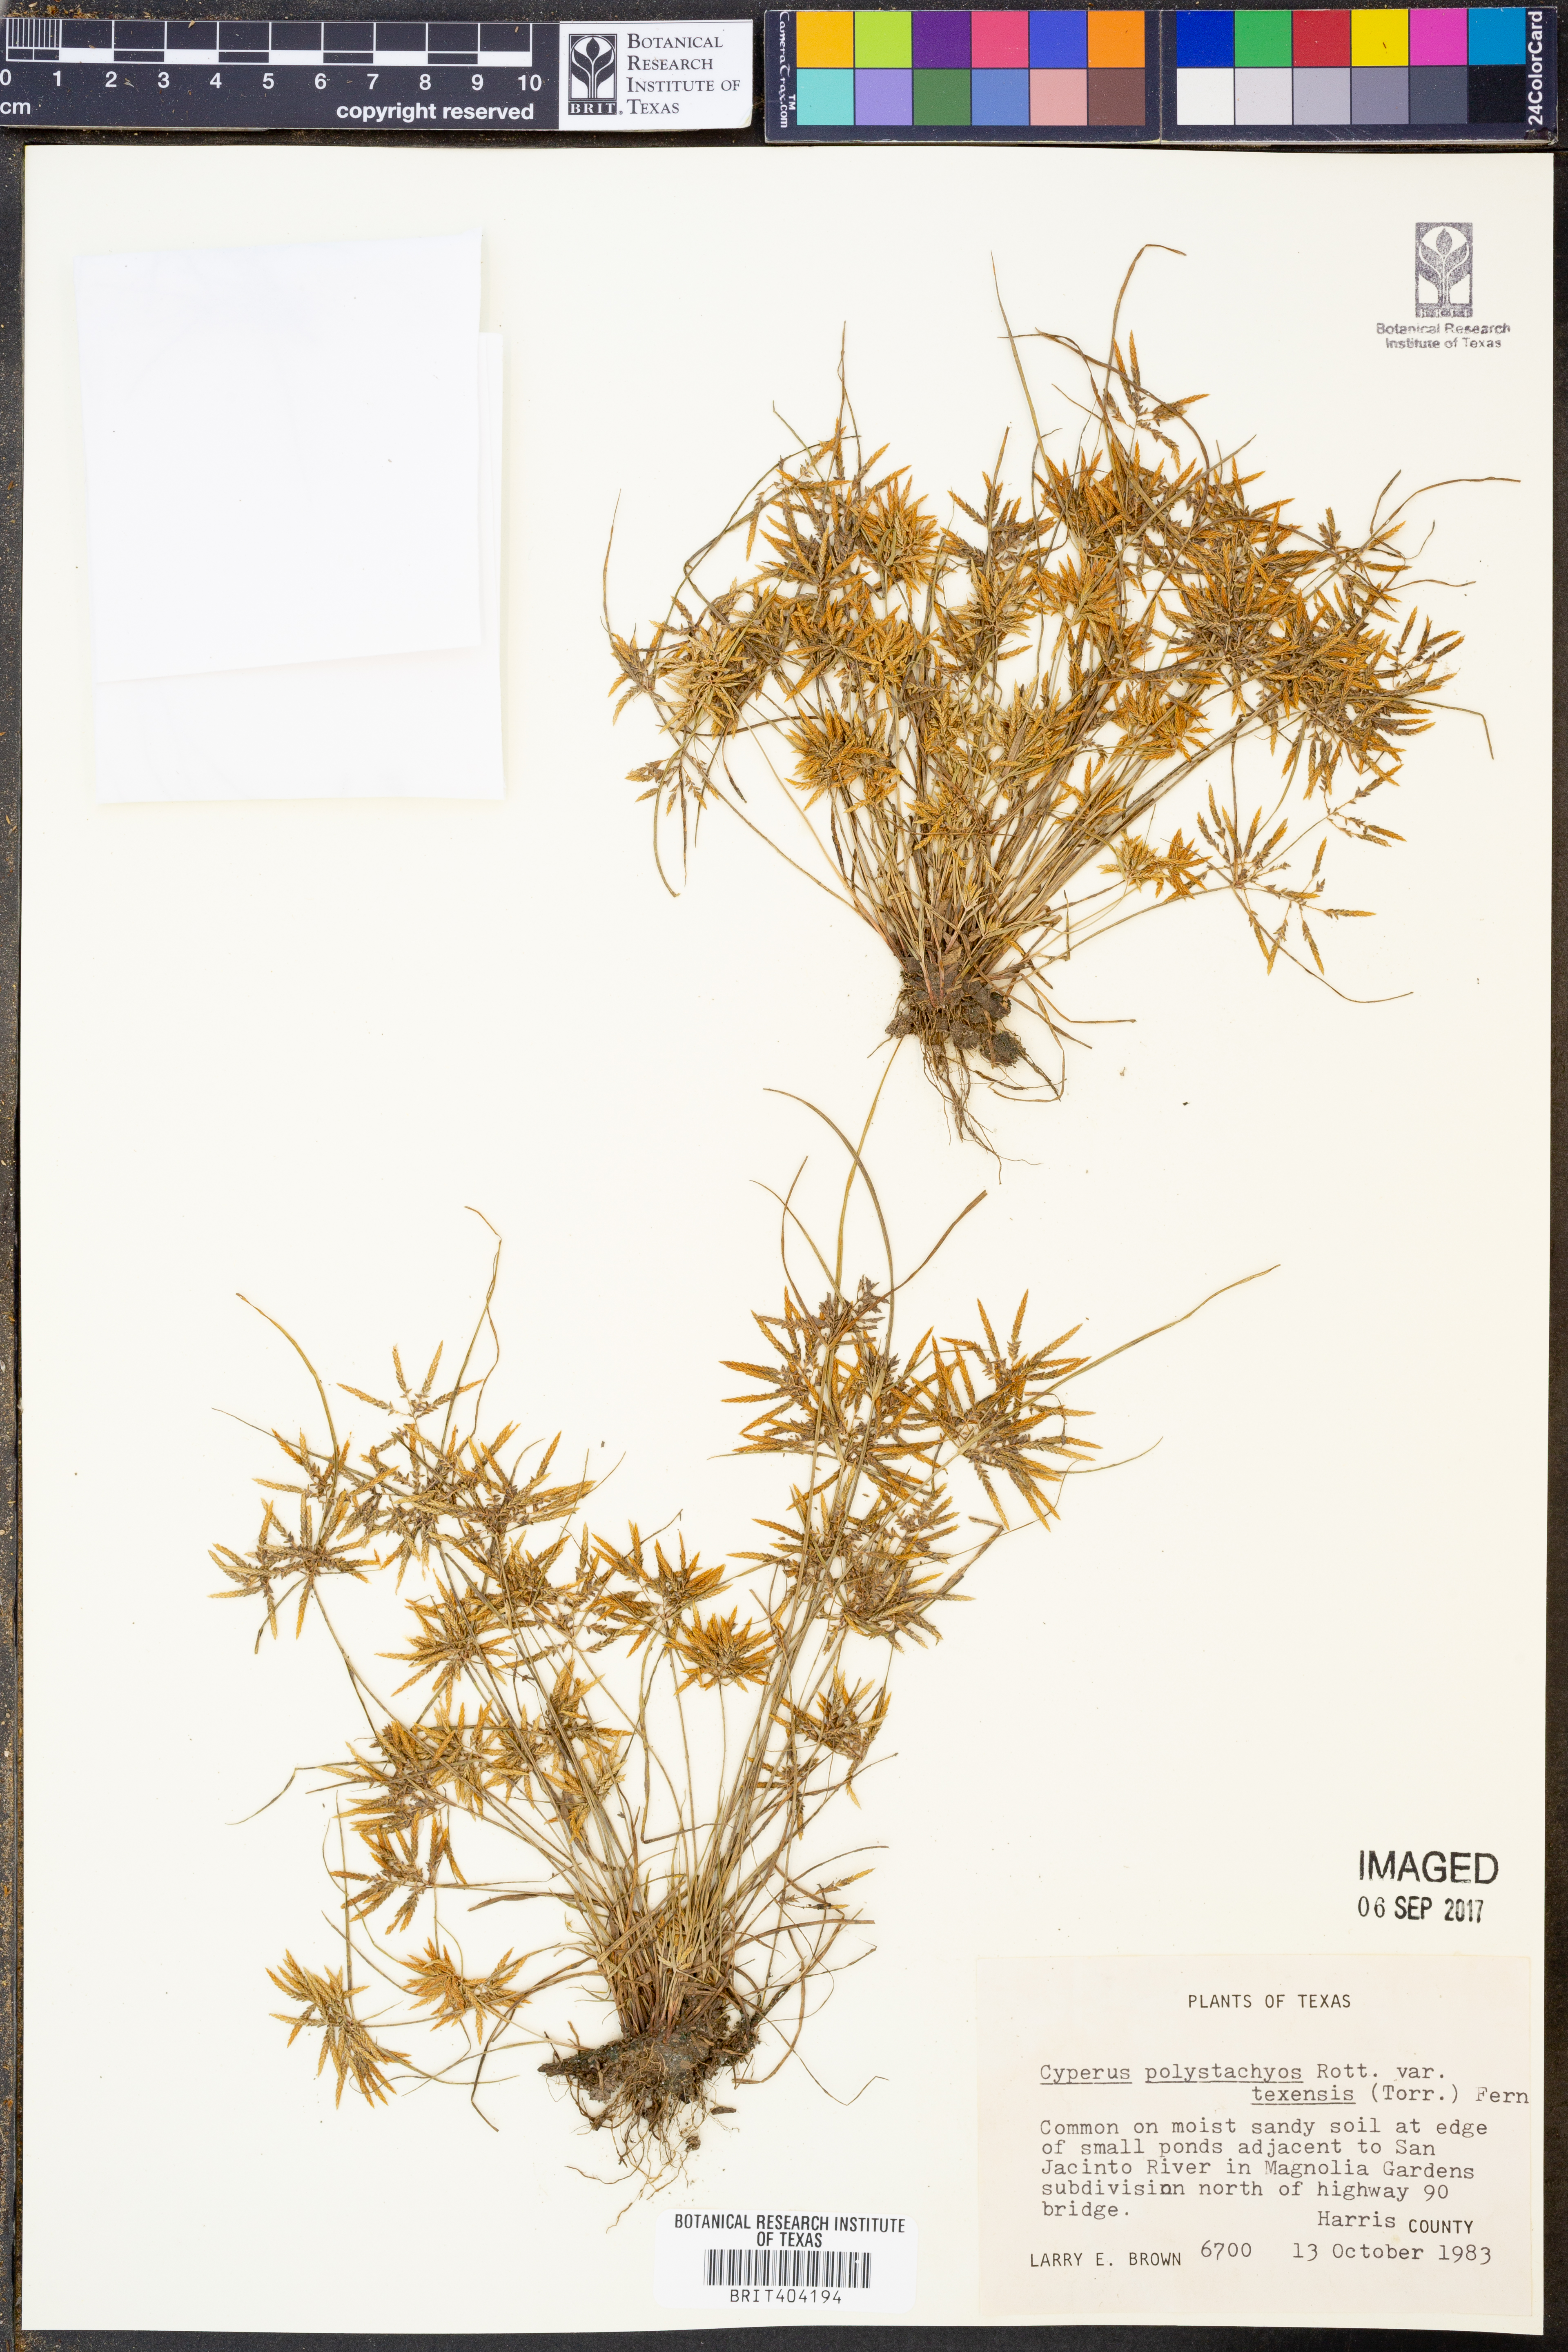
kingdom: Plantae
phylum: Tracheophyta
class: Liliopsida
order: Poales
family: Cyperaceae
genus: Cyperus
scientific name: Cyperus polystachyos
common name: Bunchy flat sedge
